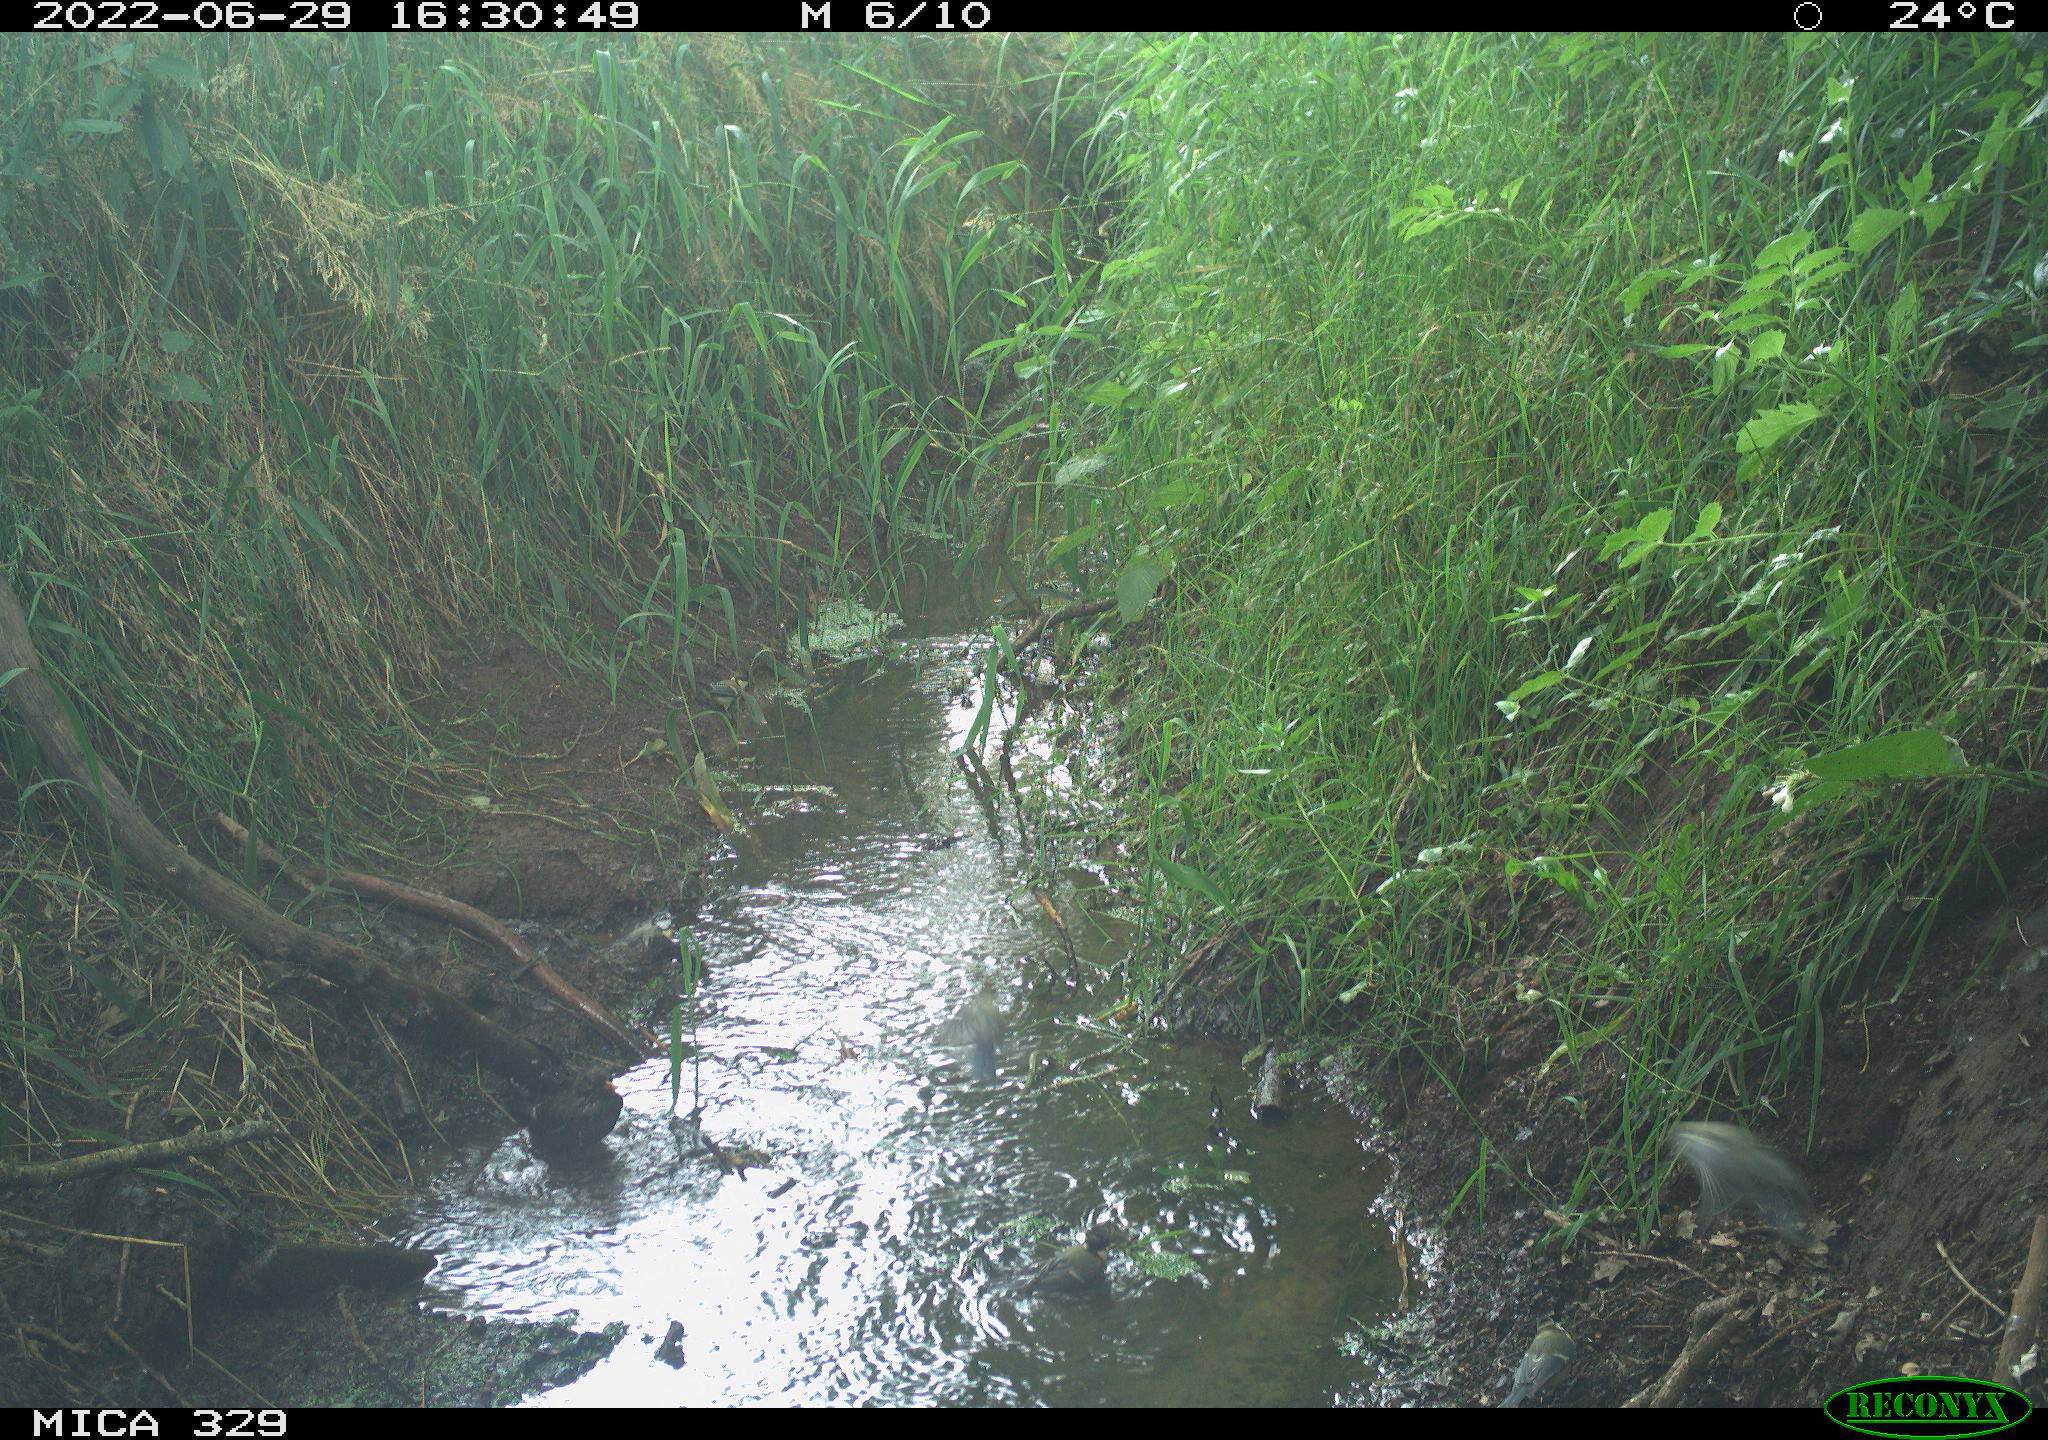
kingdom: Animalia
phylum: Chordata
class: Aves
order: Passeriformes
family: Paridae
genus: Parus
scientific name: Parus major
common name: Great tit
